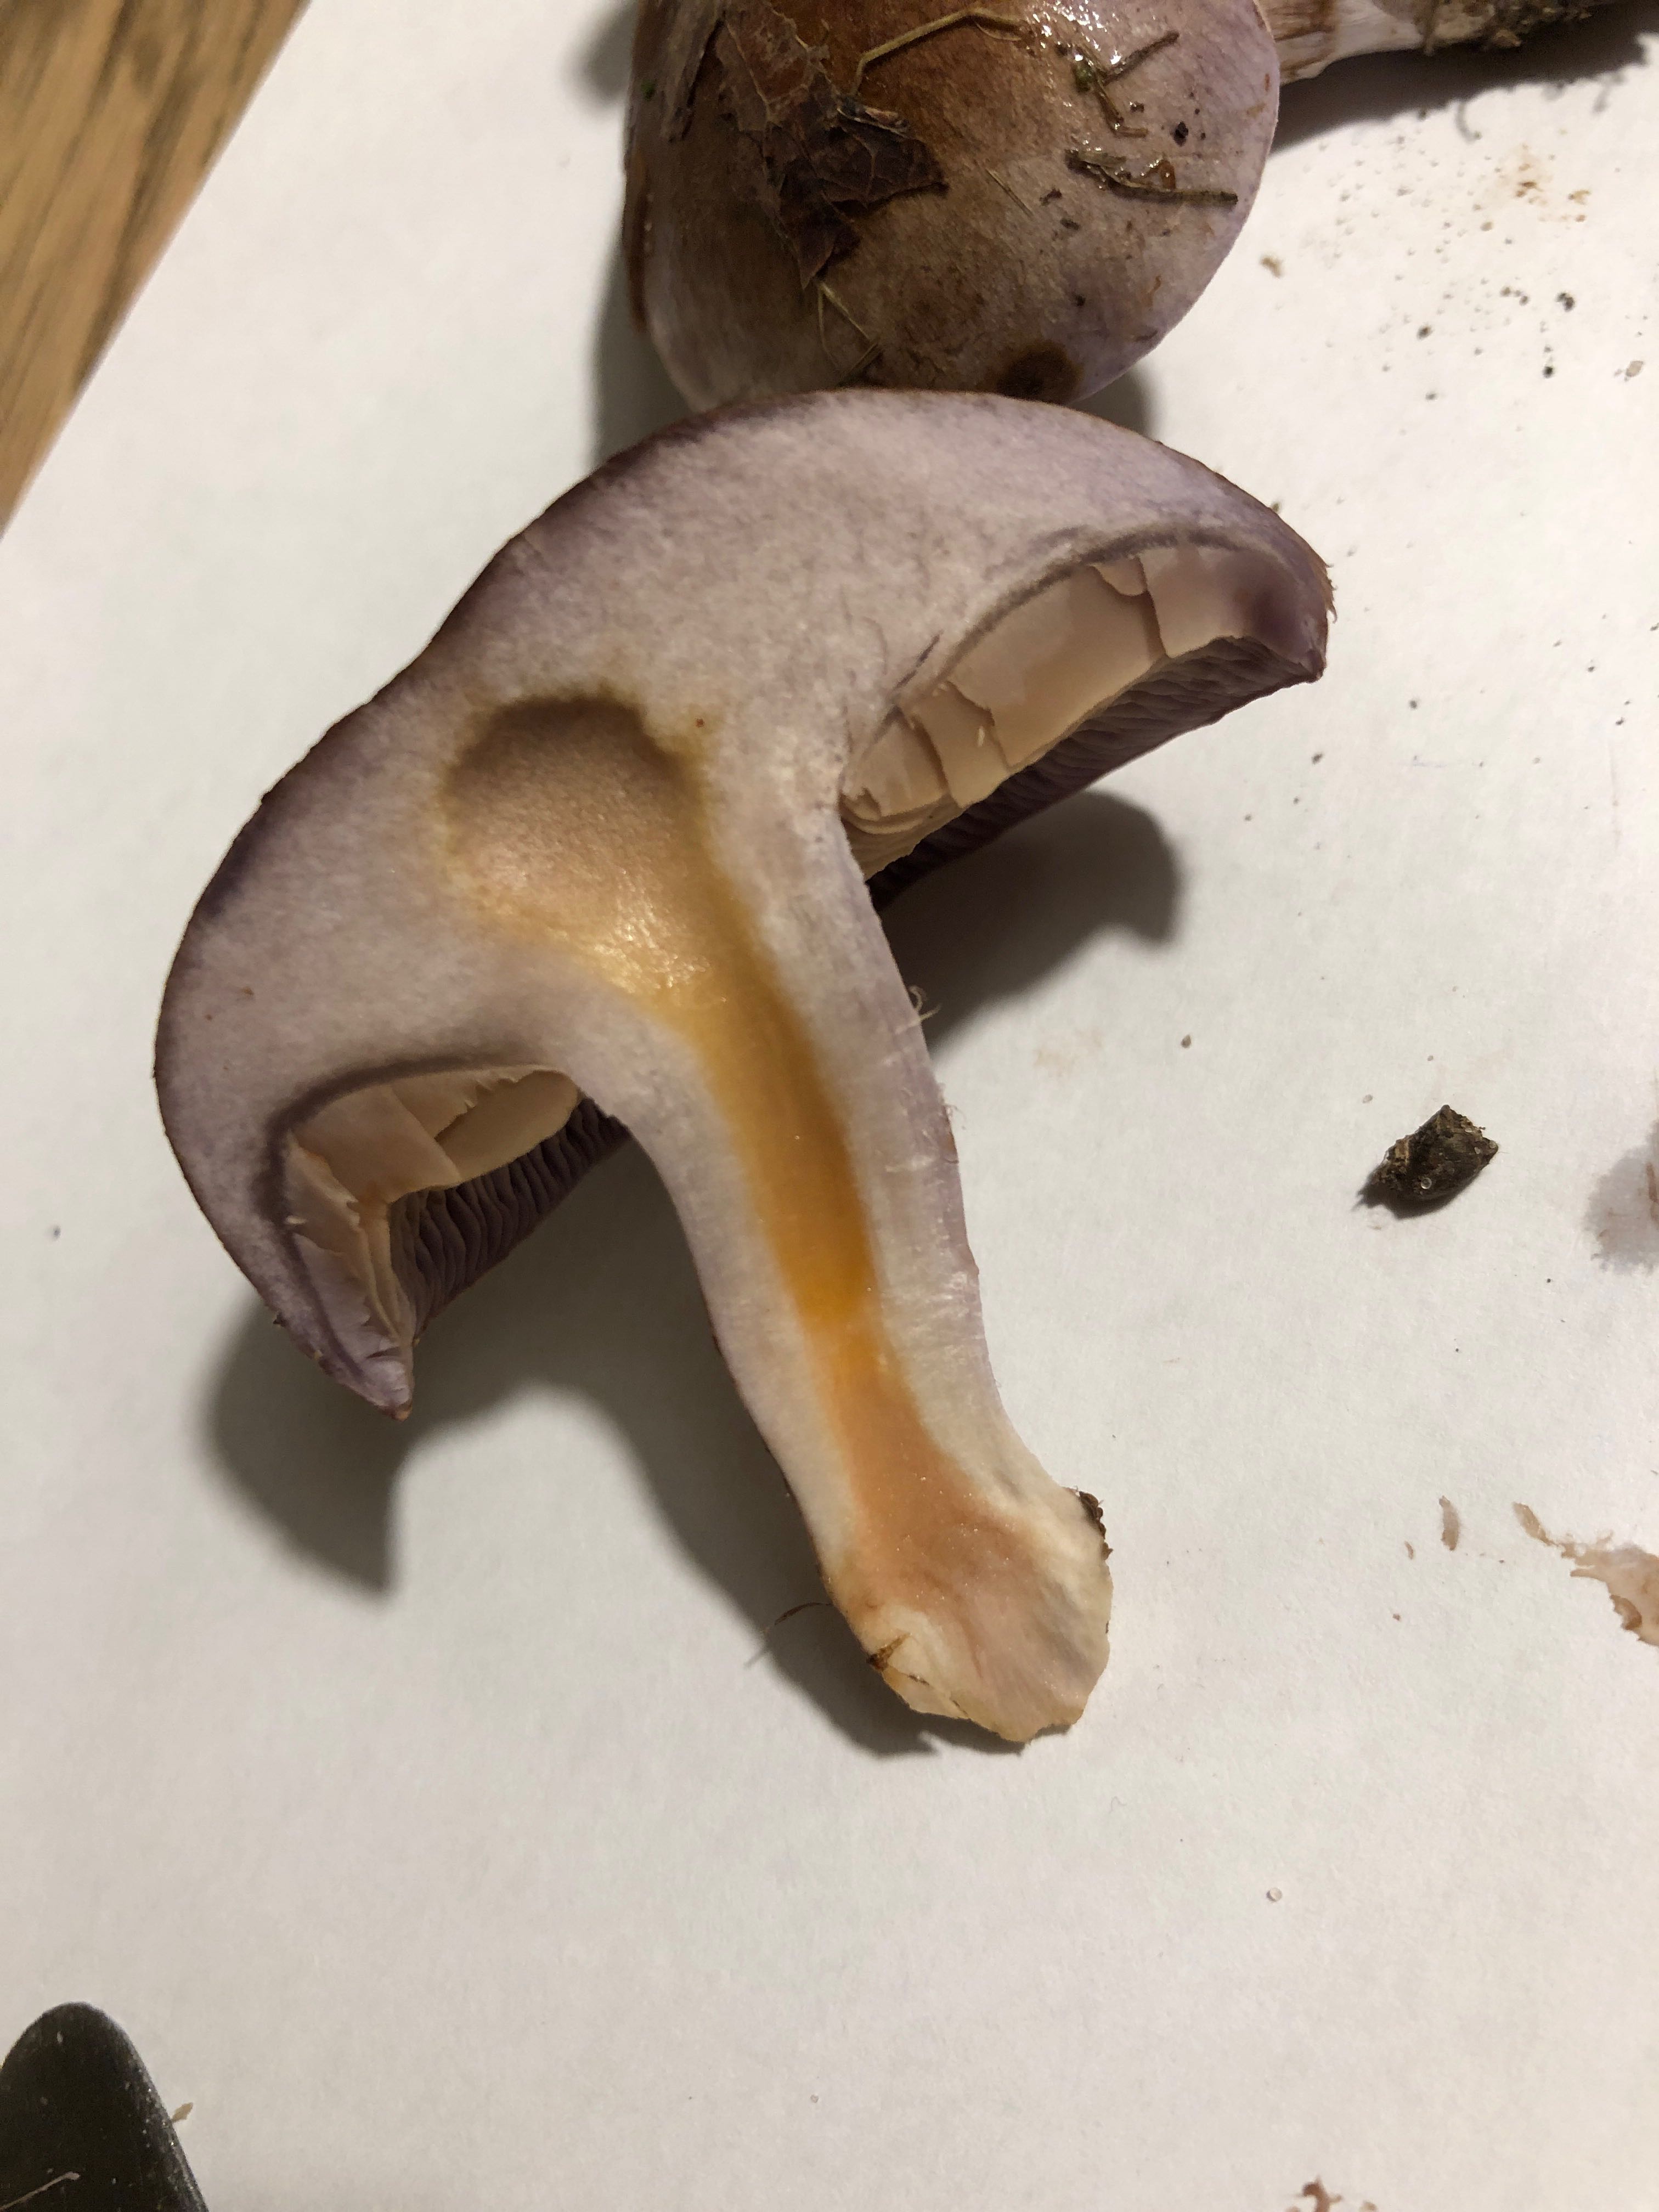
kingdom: Fungi
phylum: Basidiomycota
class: Agaricomycetes
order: Agaricales
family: Cortinariaceae
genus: Phlegmacium
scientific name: Phlegmacium balteatocumatile
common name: violettrådet slørhat
